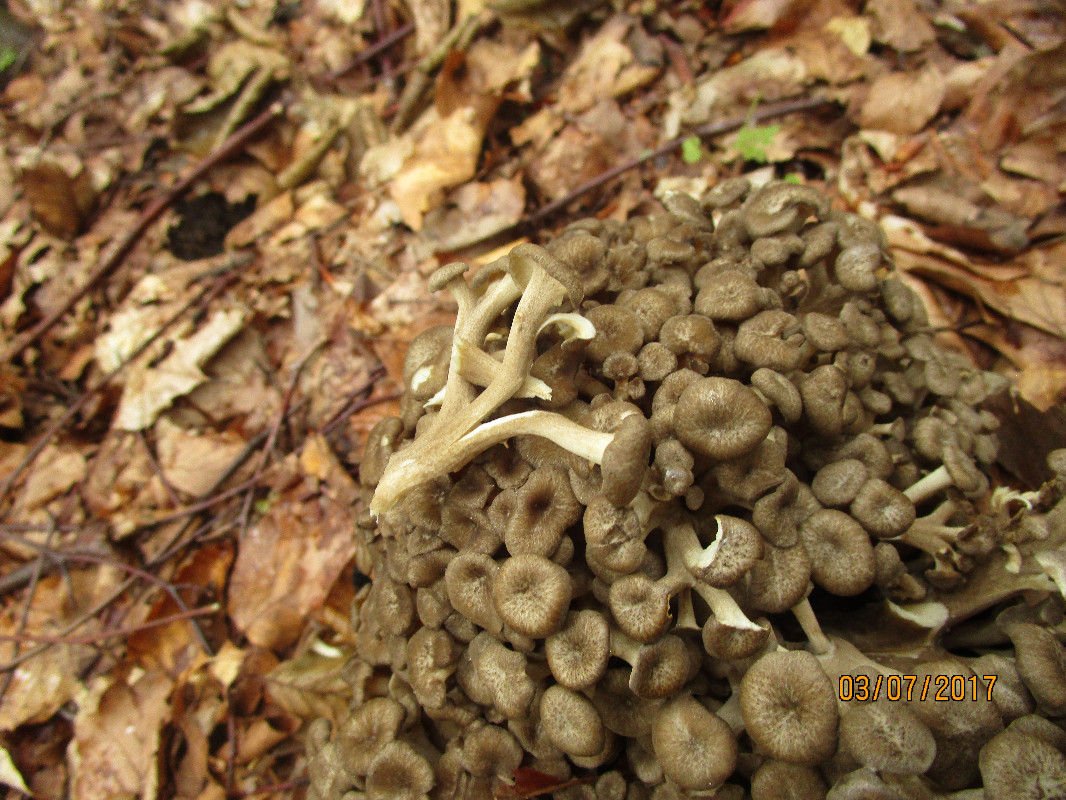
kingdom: Fungi
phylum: Basidiomycota
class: Agaricomycetes
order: Polyporales
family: Polyporaceae
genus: Polyporus
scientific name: Polyporus umbellatus
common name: skærmformet stilkporesvamp
